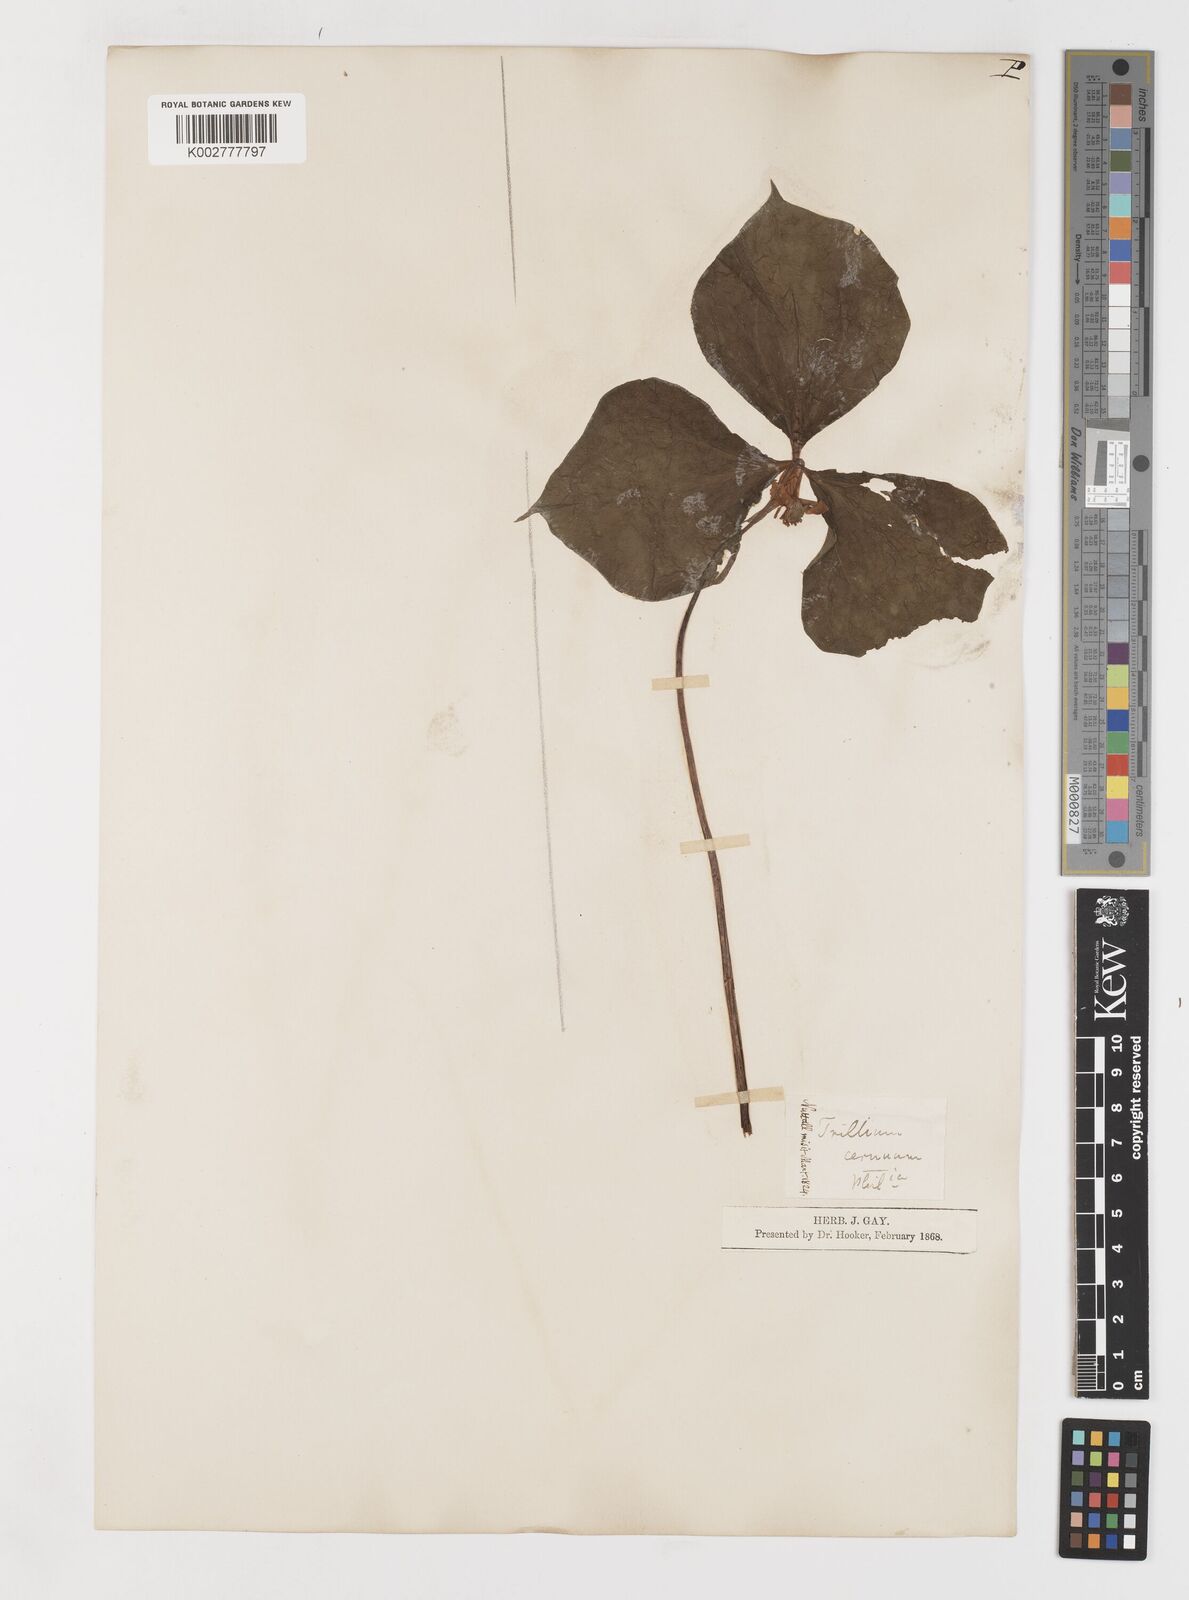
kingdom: Plantae
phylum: Tracheophyta
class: Liliopsida
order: Liliales
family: Melanthiaceae
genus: Trillium
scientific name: Trillium cernuum
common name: Nodding trillium
